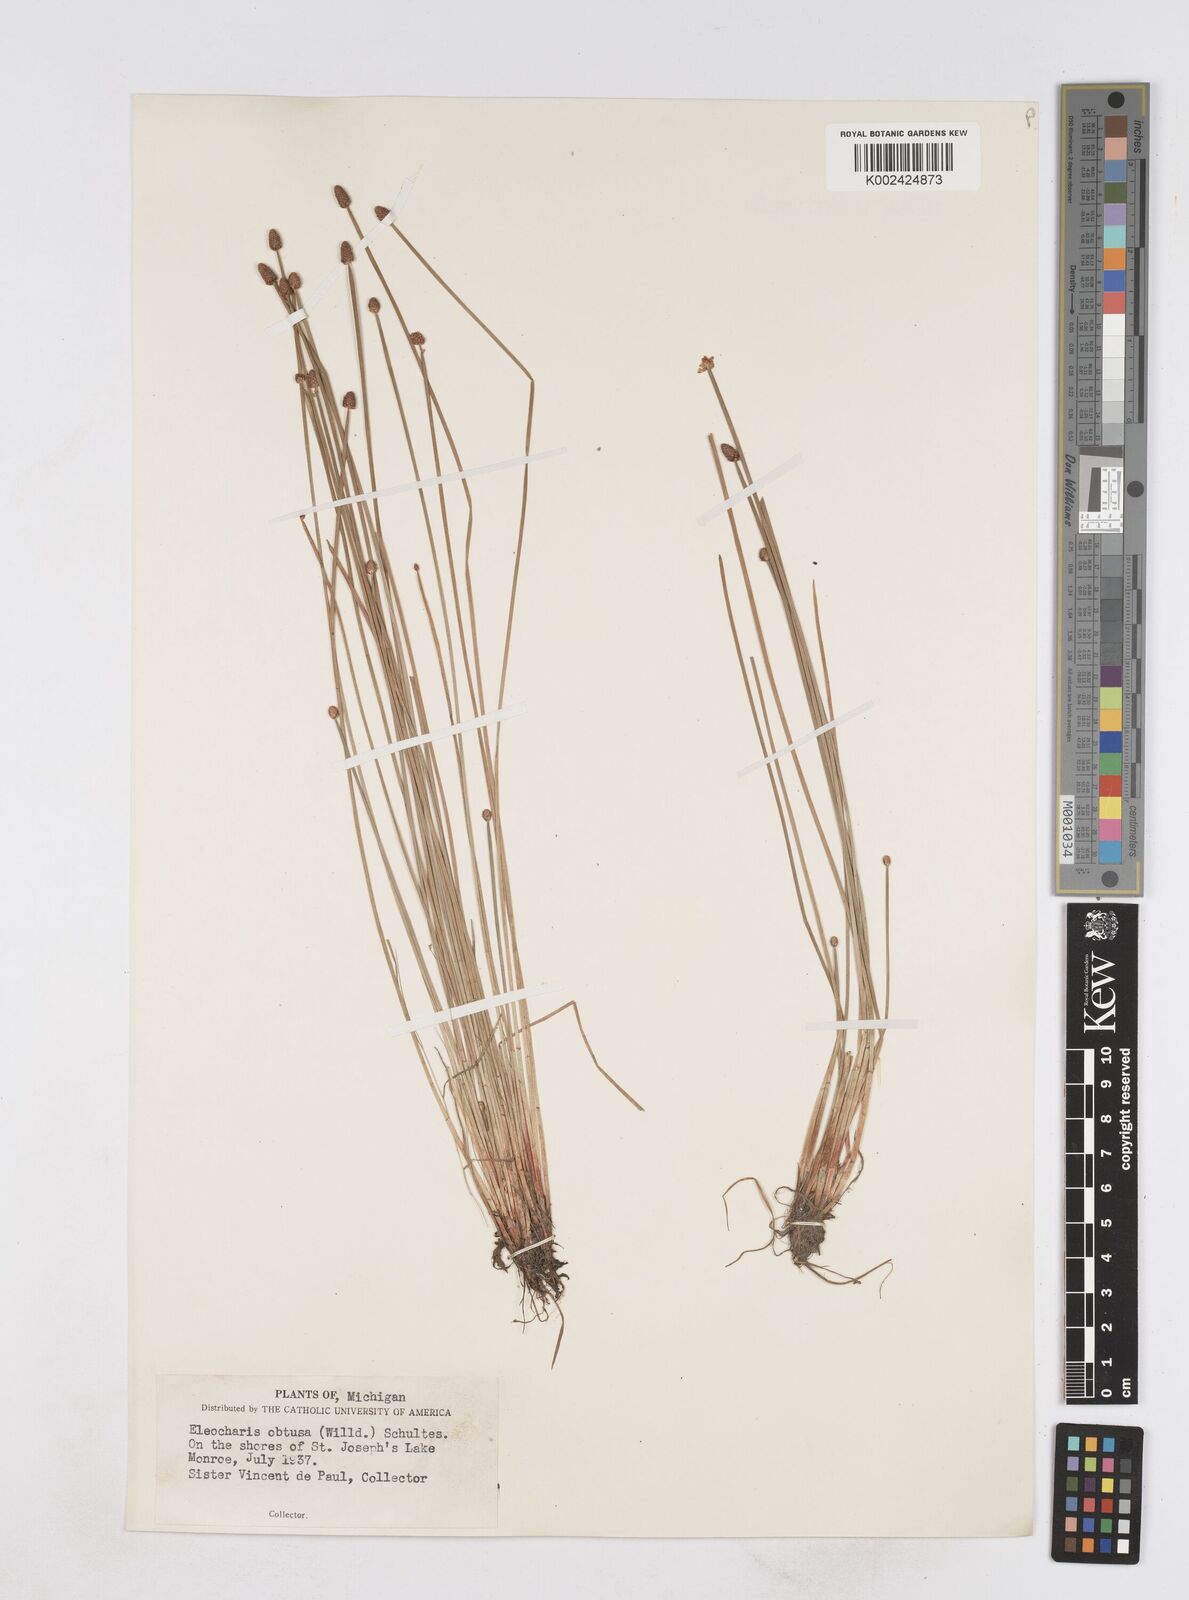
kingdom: Plantae
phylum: Tracheophyta
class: Liliopsida
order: Poales
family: Cyperaceae
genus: Eleocharis
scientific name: Eleocharis obtusa
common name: Blunt spikerush
